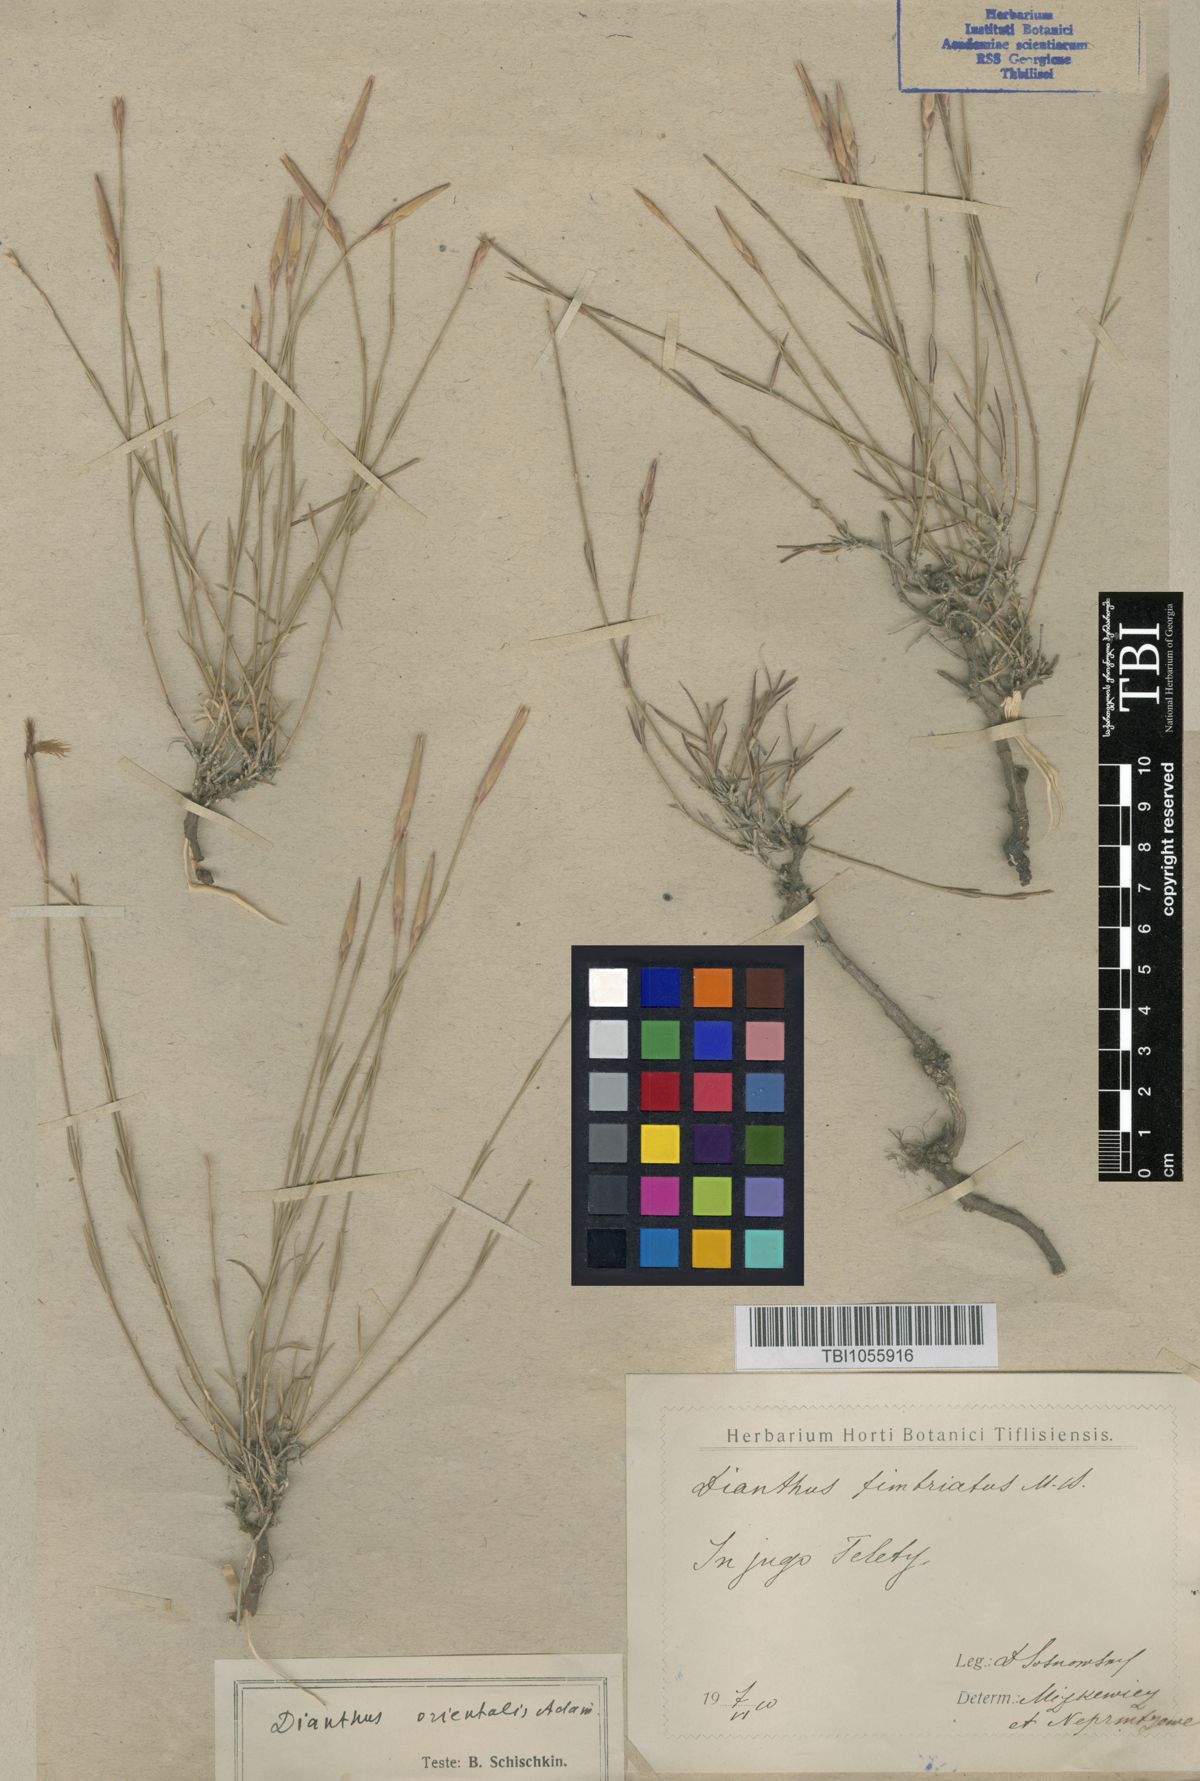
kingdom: Plantae
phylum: Tracheophyta
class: Magnoliopsida
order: Caryophyllales
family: Caryophyllaceae
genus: Dianthus
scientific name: Dianthus orientalis
